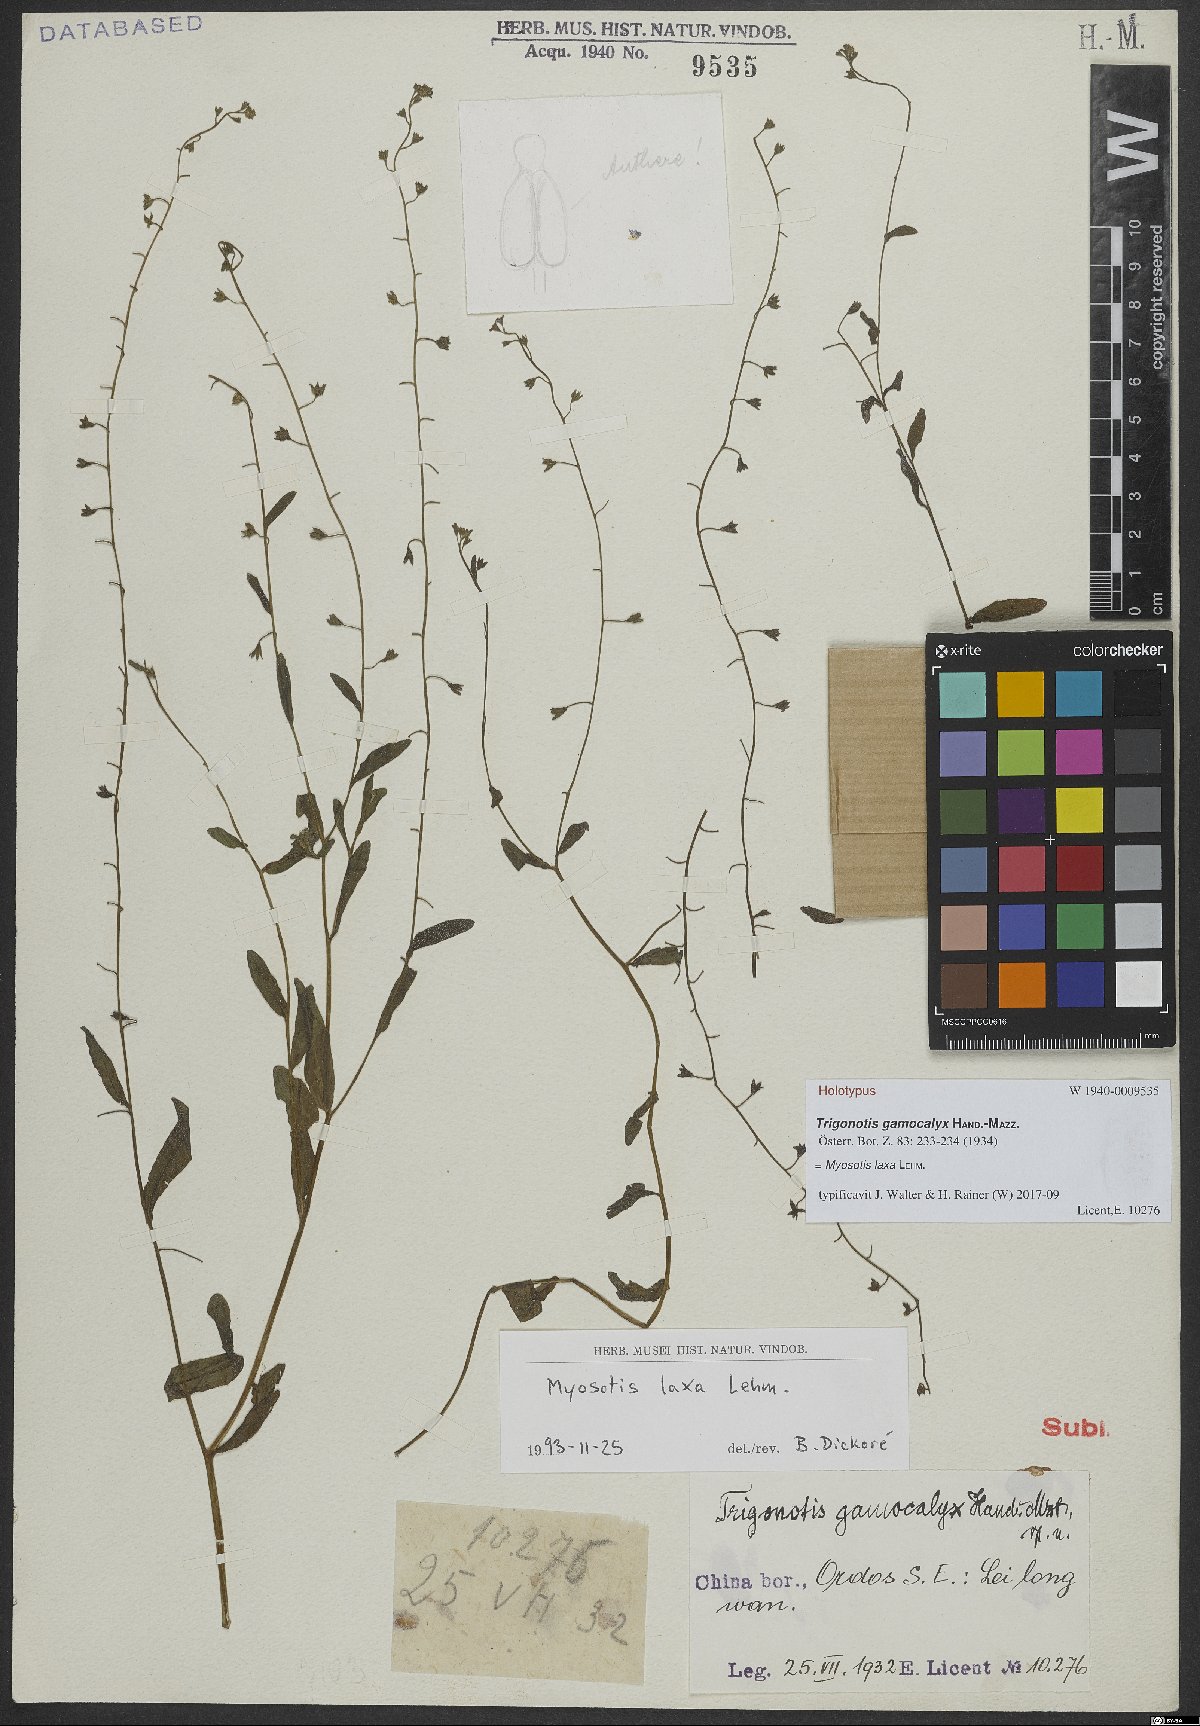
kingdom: Plantae
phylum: Tracheophyta
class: Magnoliopsida
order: Boraginales
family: Boraginaceae
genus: Myosotis
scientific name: Myosotis laxa
